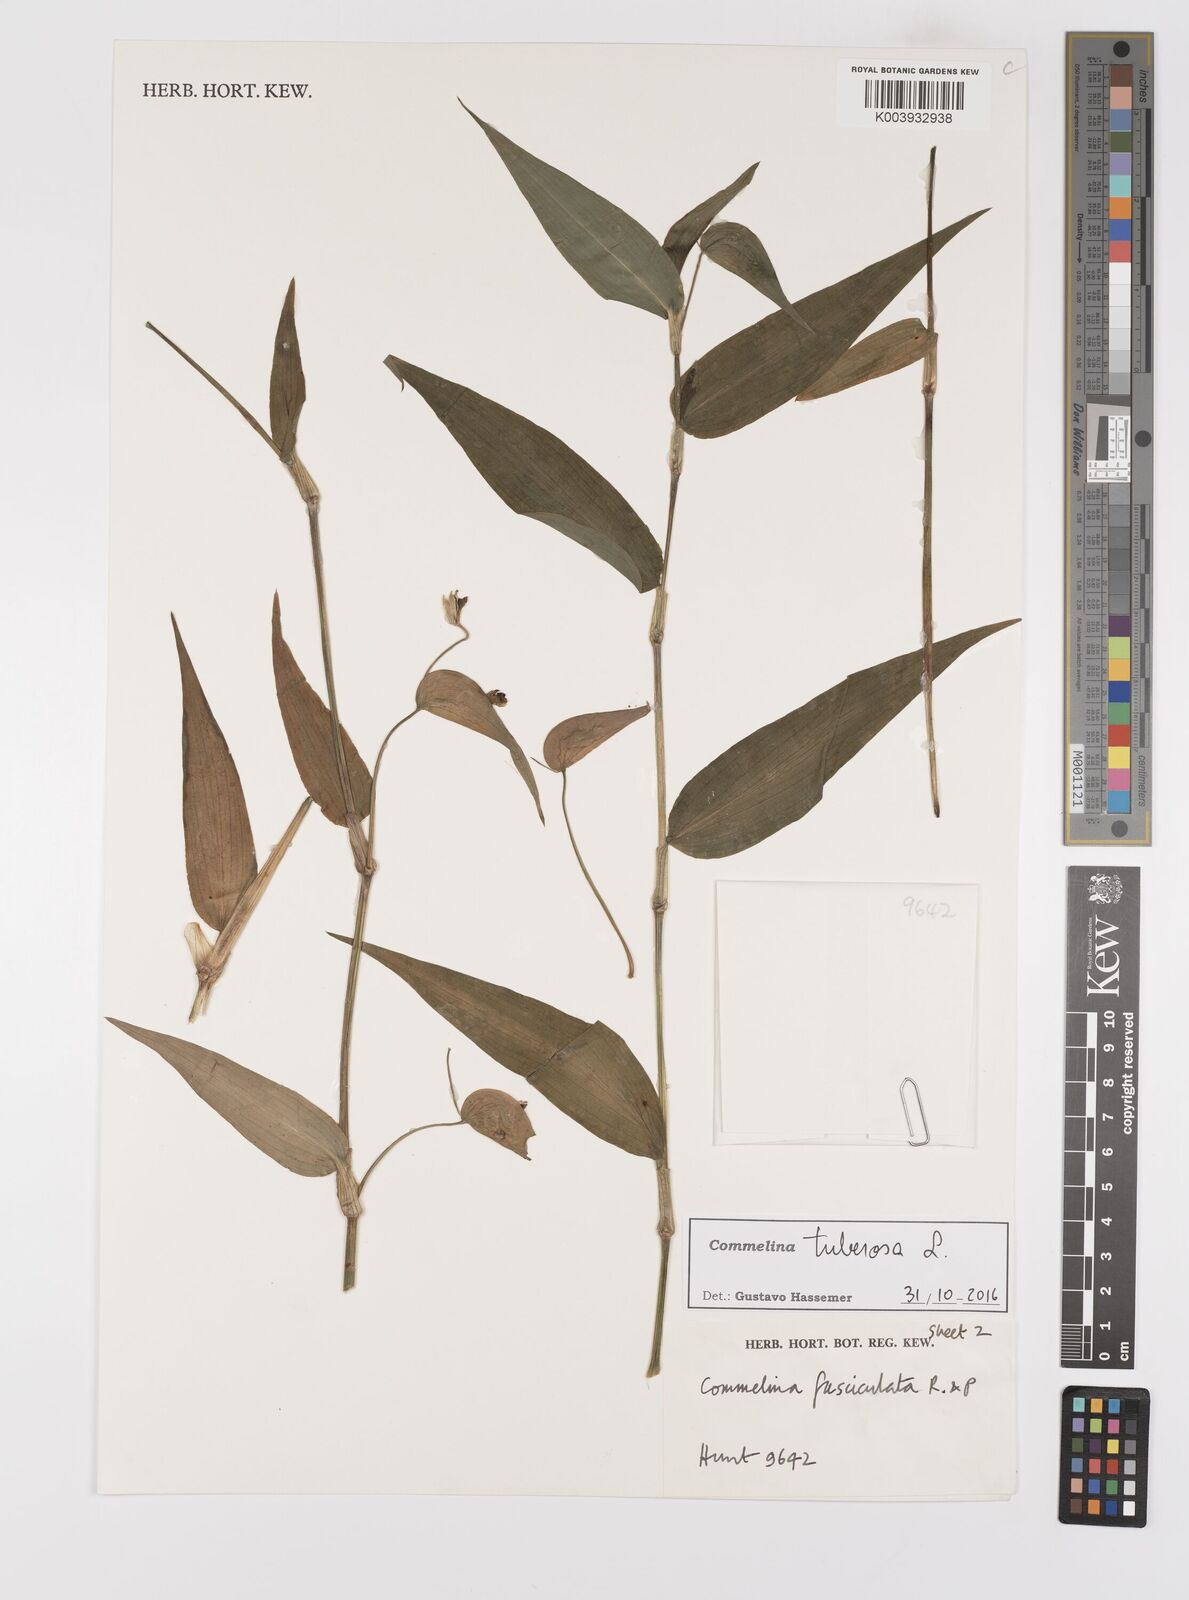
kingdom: Plantae
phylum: Tracheophyta
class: Liliopsida
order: Commelinales
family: Commelinaceae
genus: Commelina
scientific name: Commelina tuberosa
